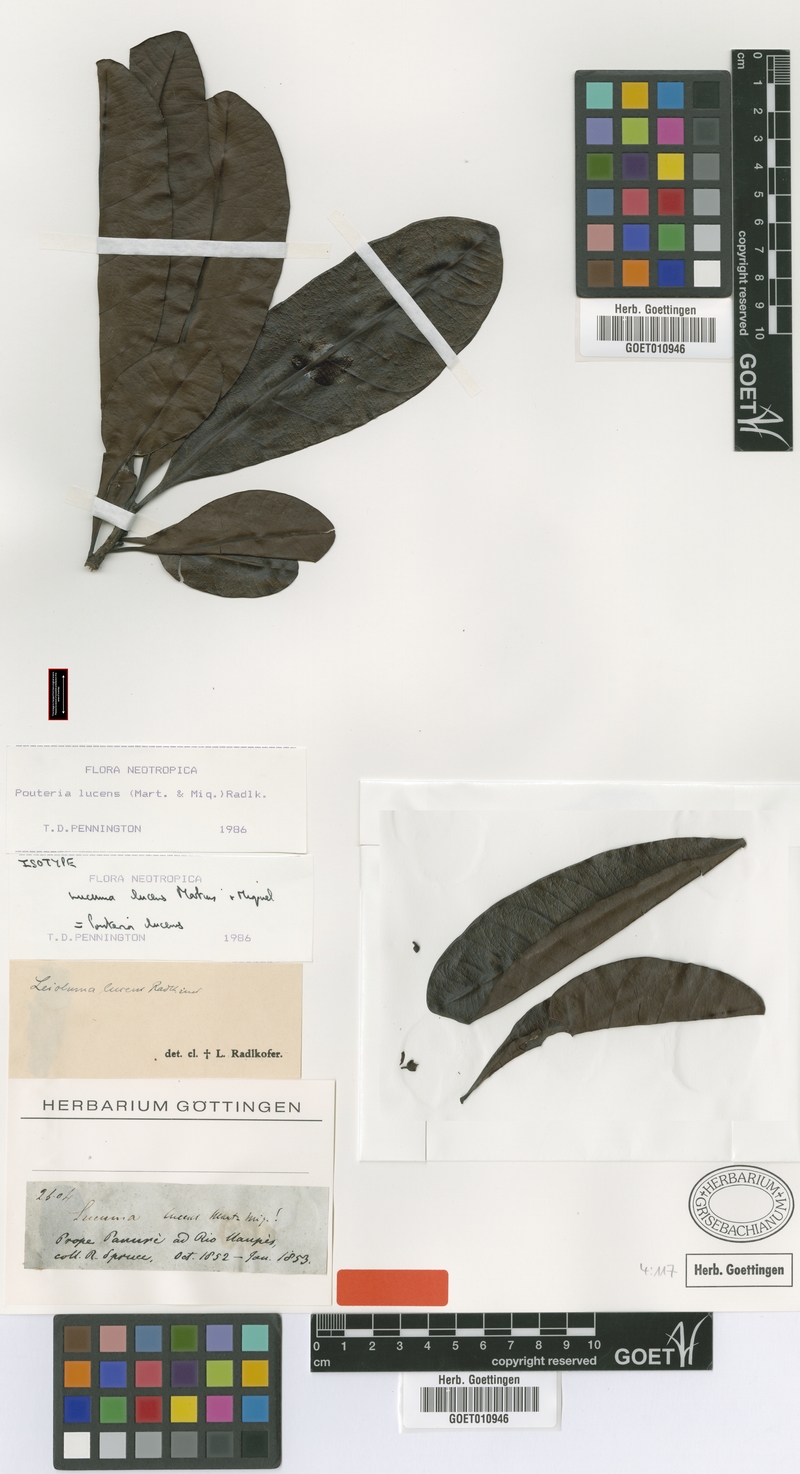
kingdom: Plantae
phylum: Tracheophyta
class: Magnoliopsida
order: Ericales
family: Sapotaceae
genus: Pouteria
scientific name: Pouteria lucens
